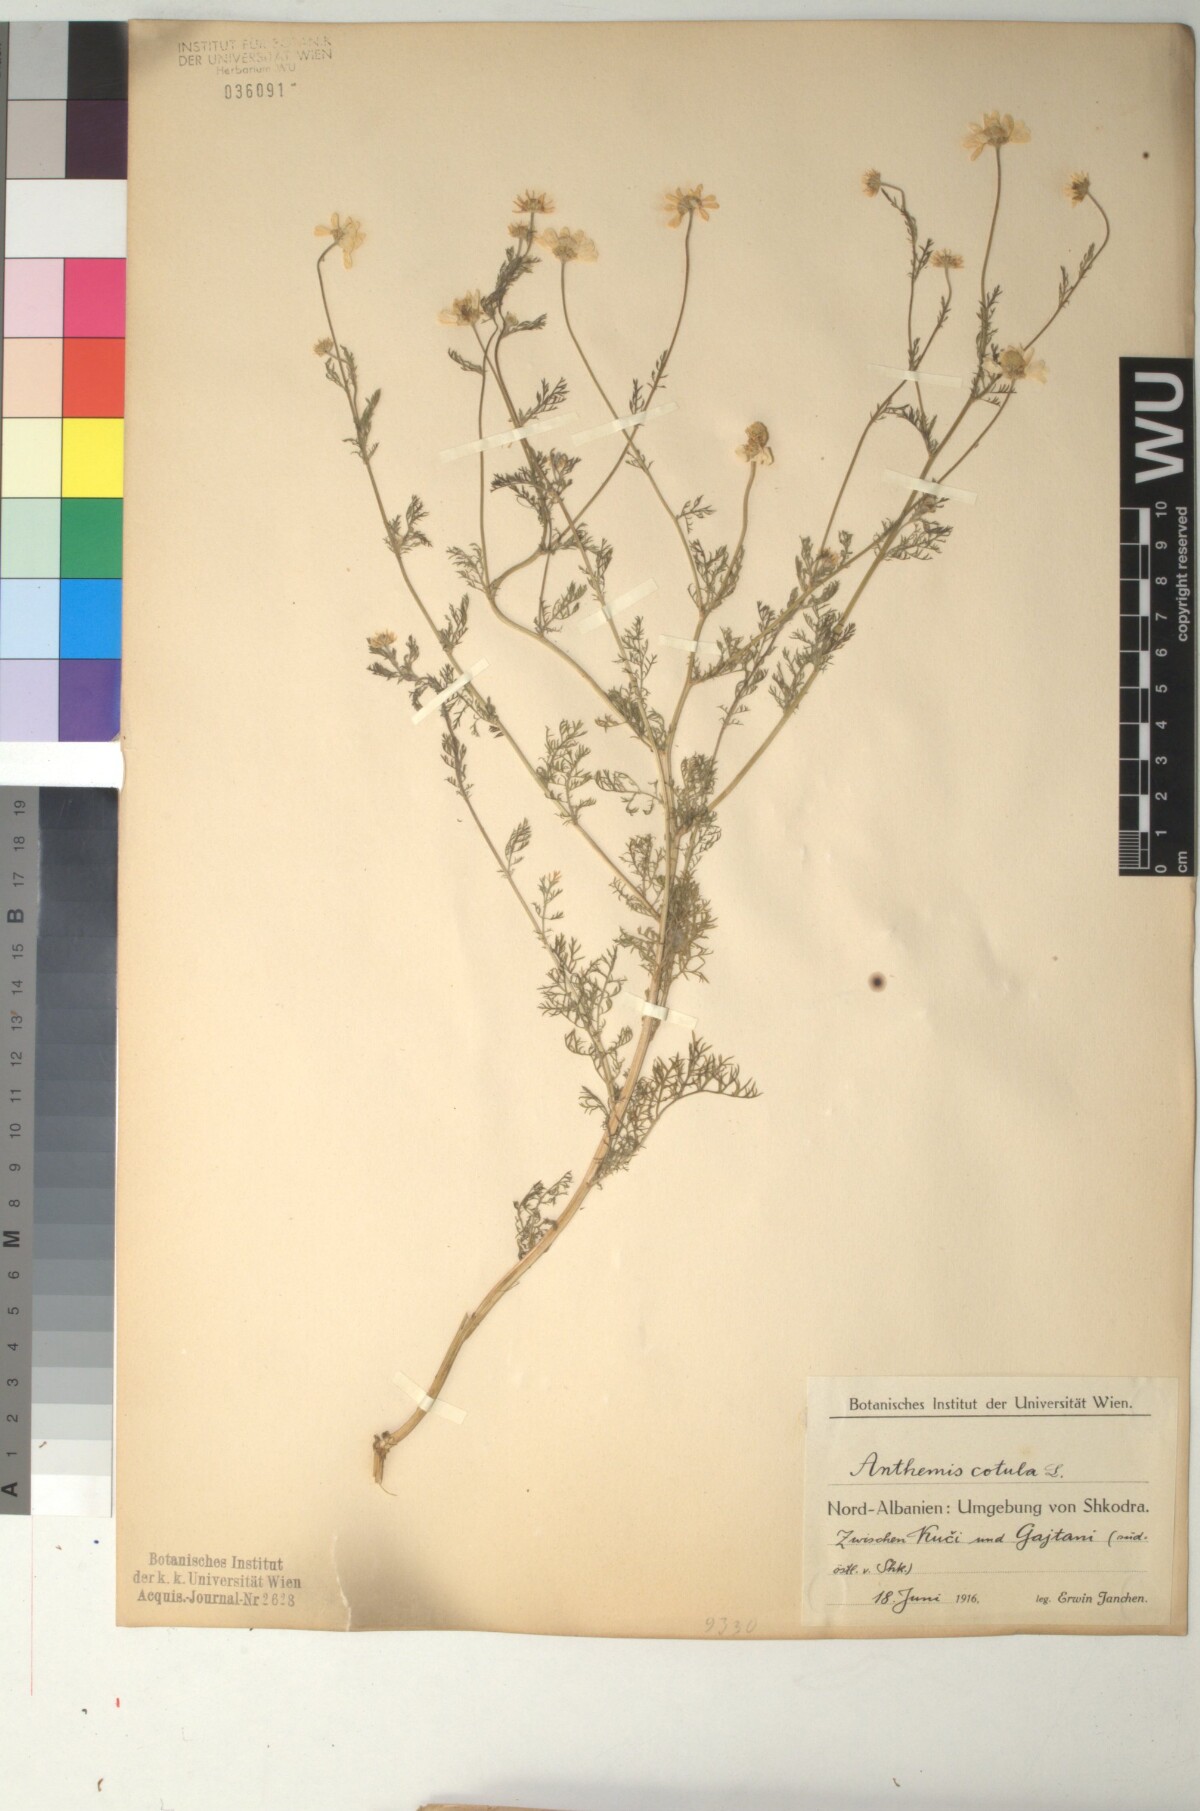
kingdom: Plantae
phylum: Tracheophyta
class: Magnoliopsida
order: Asterales
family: Asteraceae
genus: Anthemis
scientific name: Anthemis cotula
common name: Stinking chamomile
